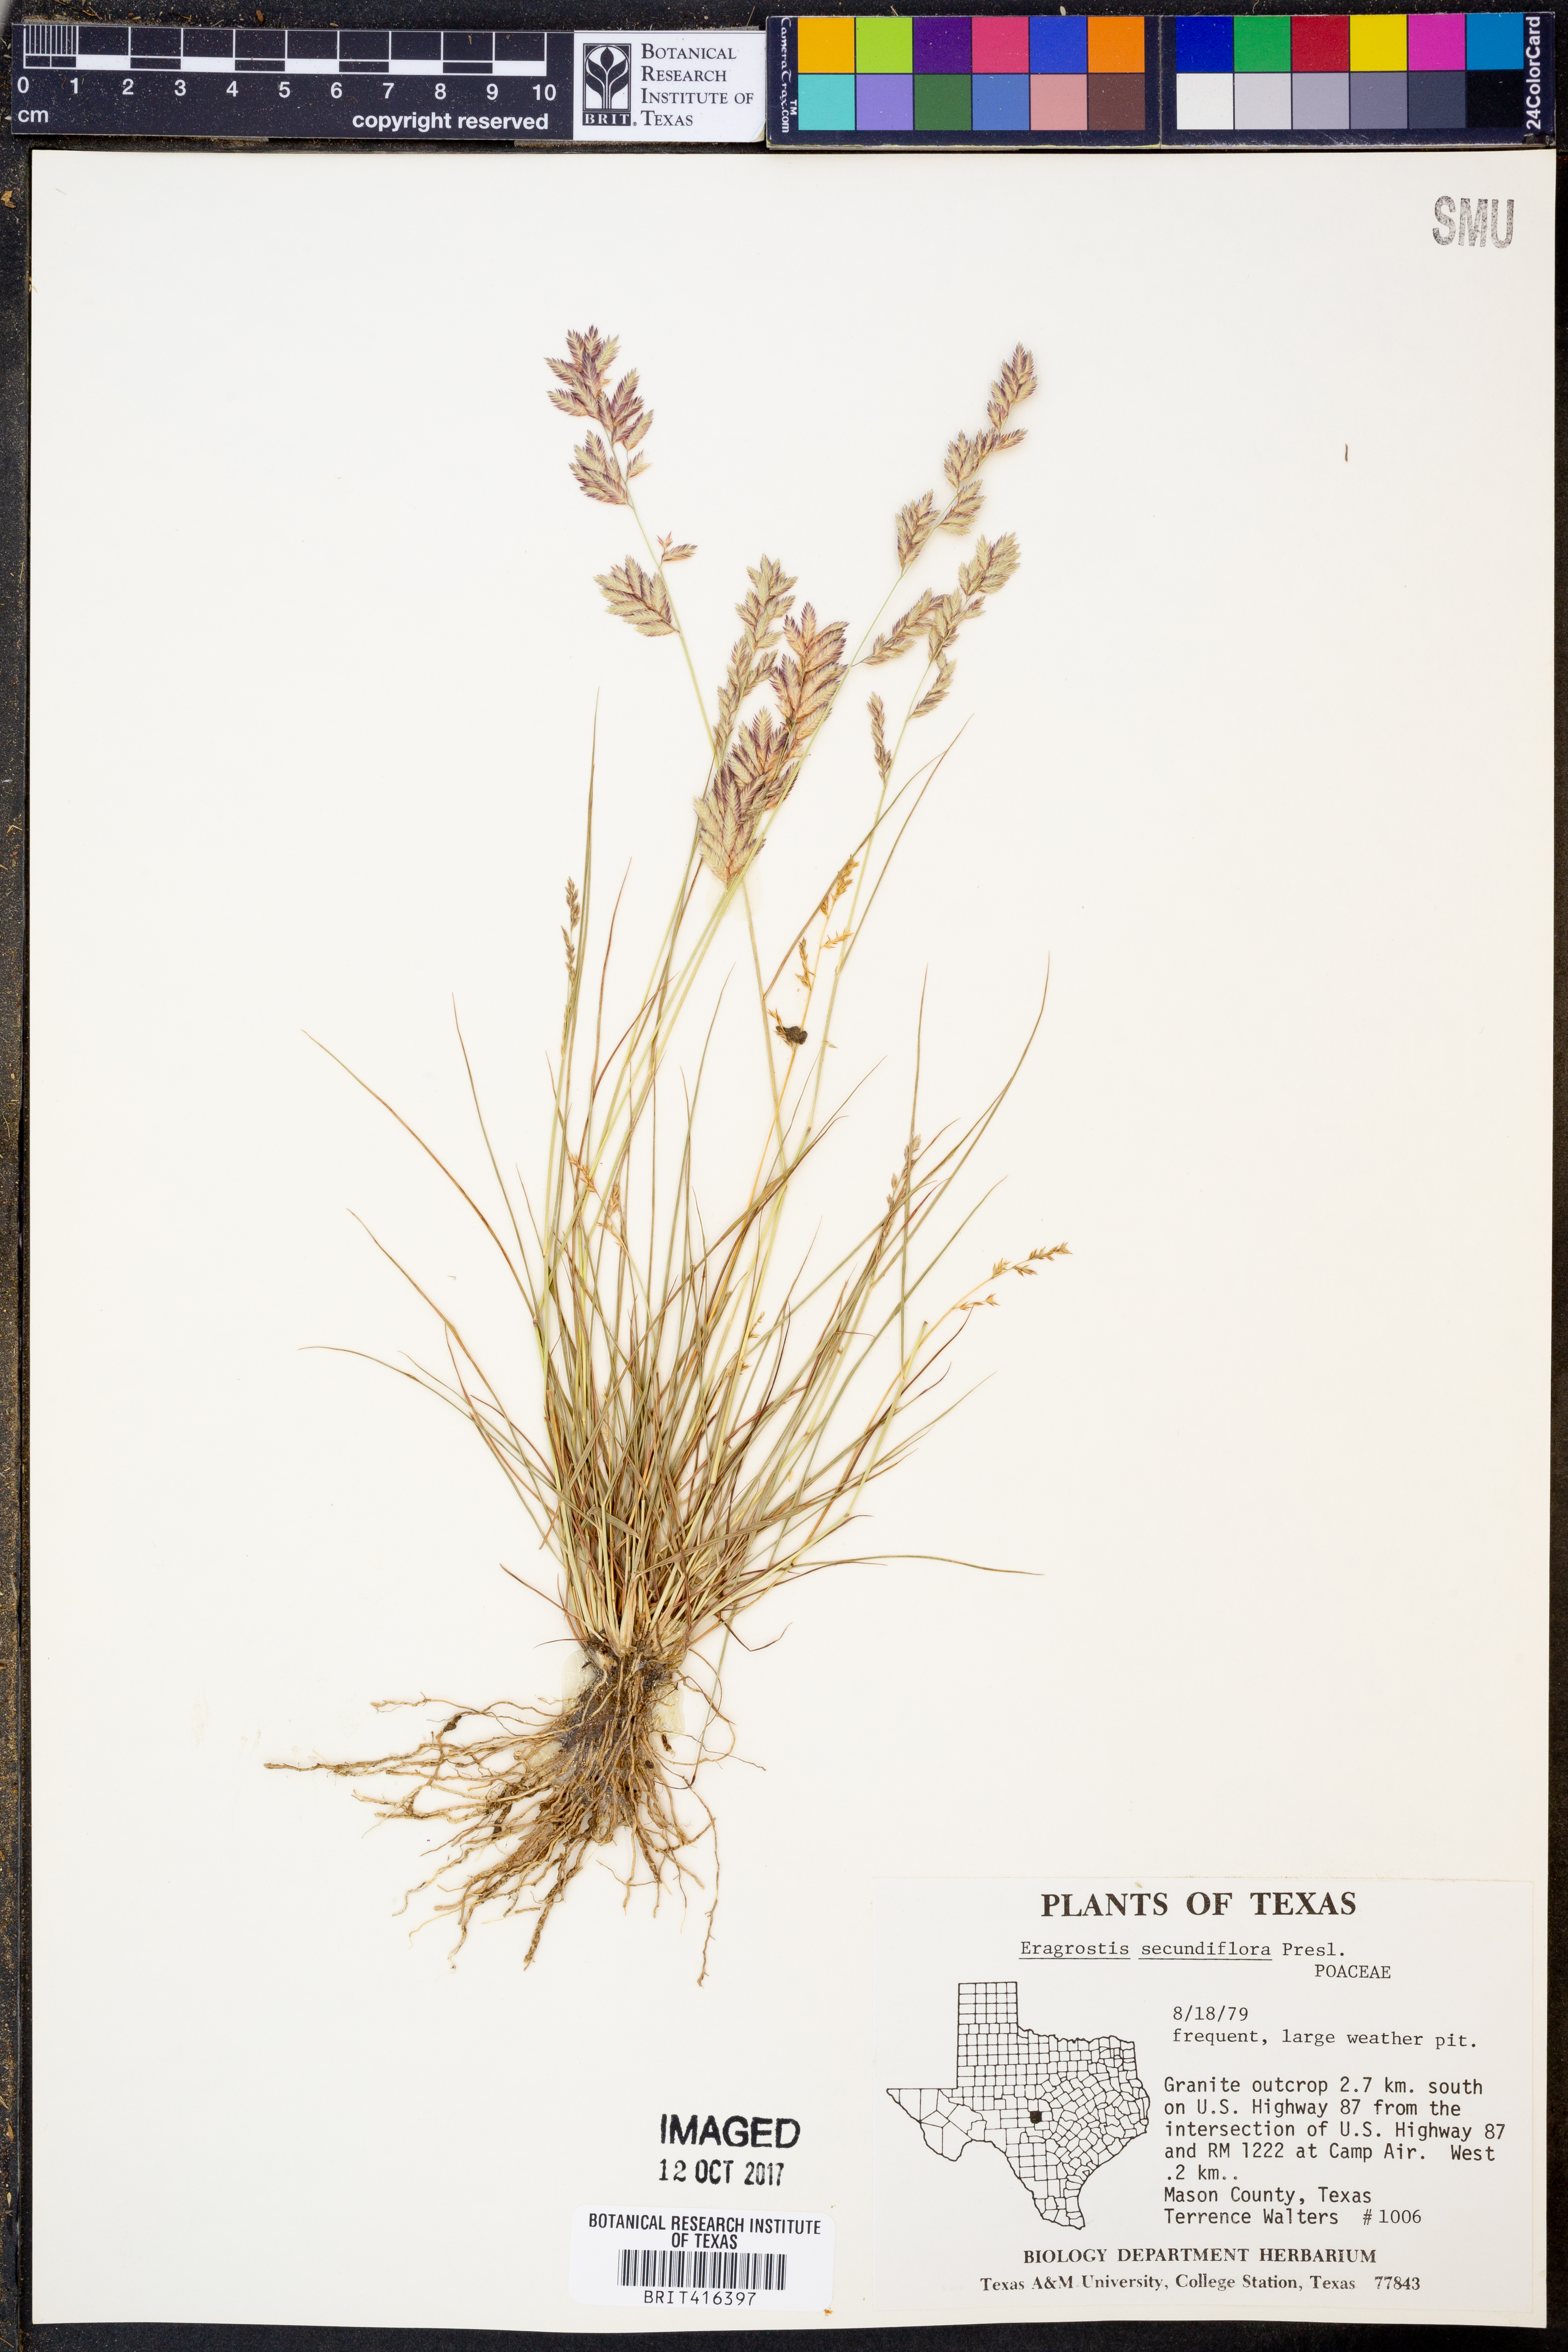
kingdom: Plantae
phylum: Tracheophyta
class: Liliopsida
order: Poales
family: Poaceae
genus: Eragrostis
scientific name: Eragrostis secundiflora
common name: Red love grass
